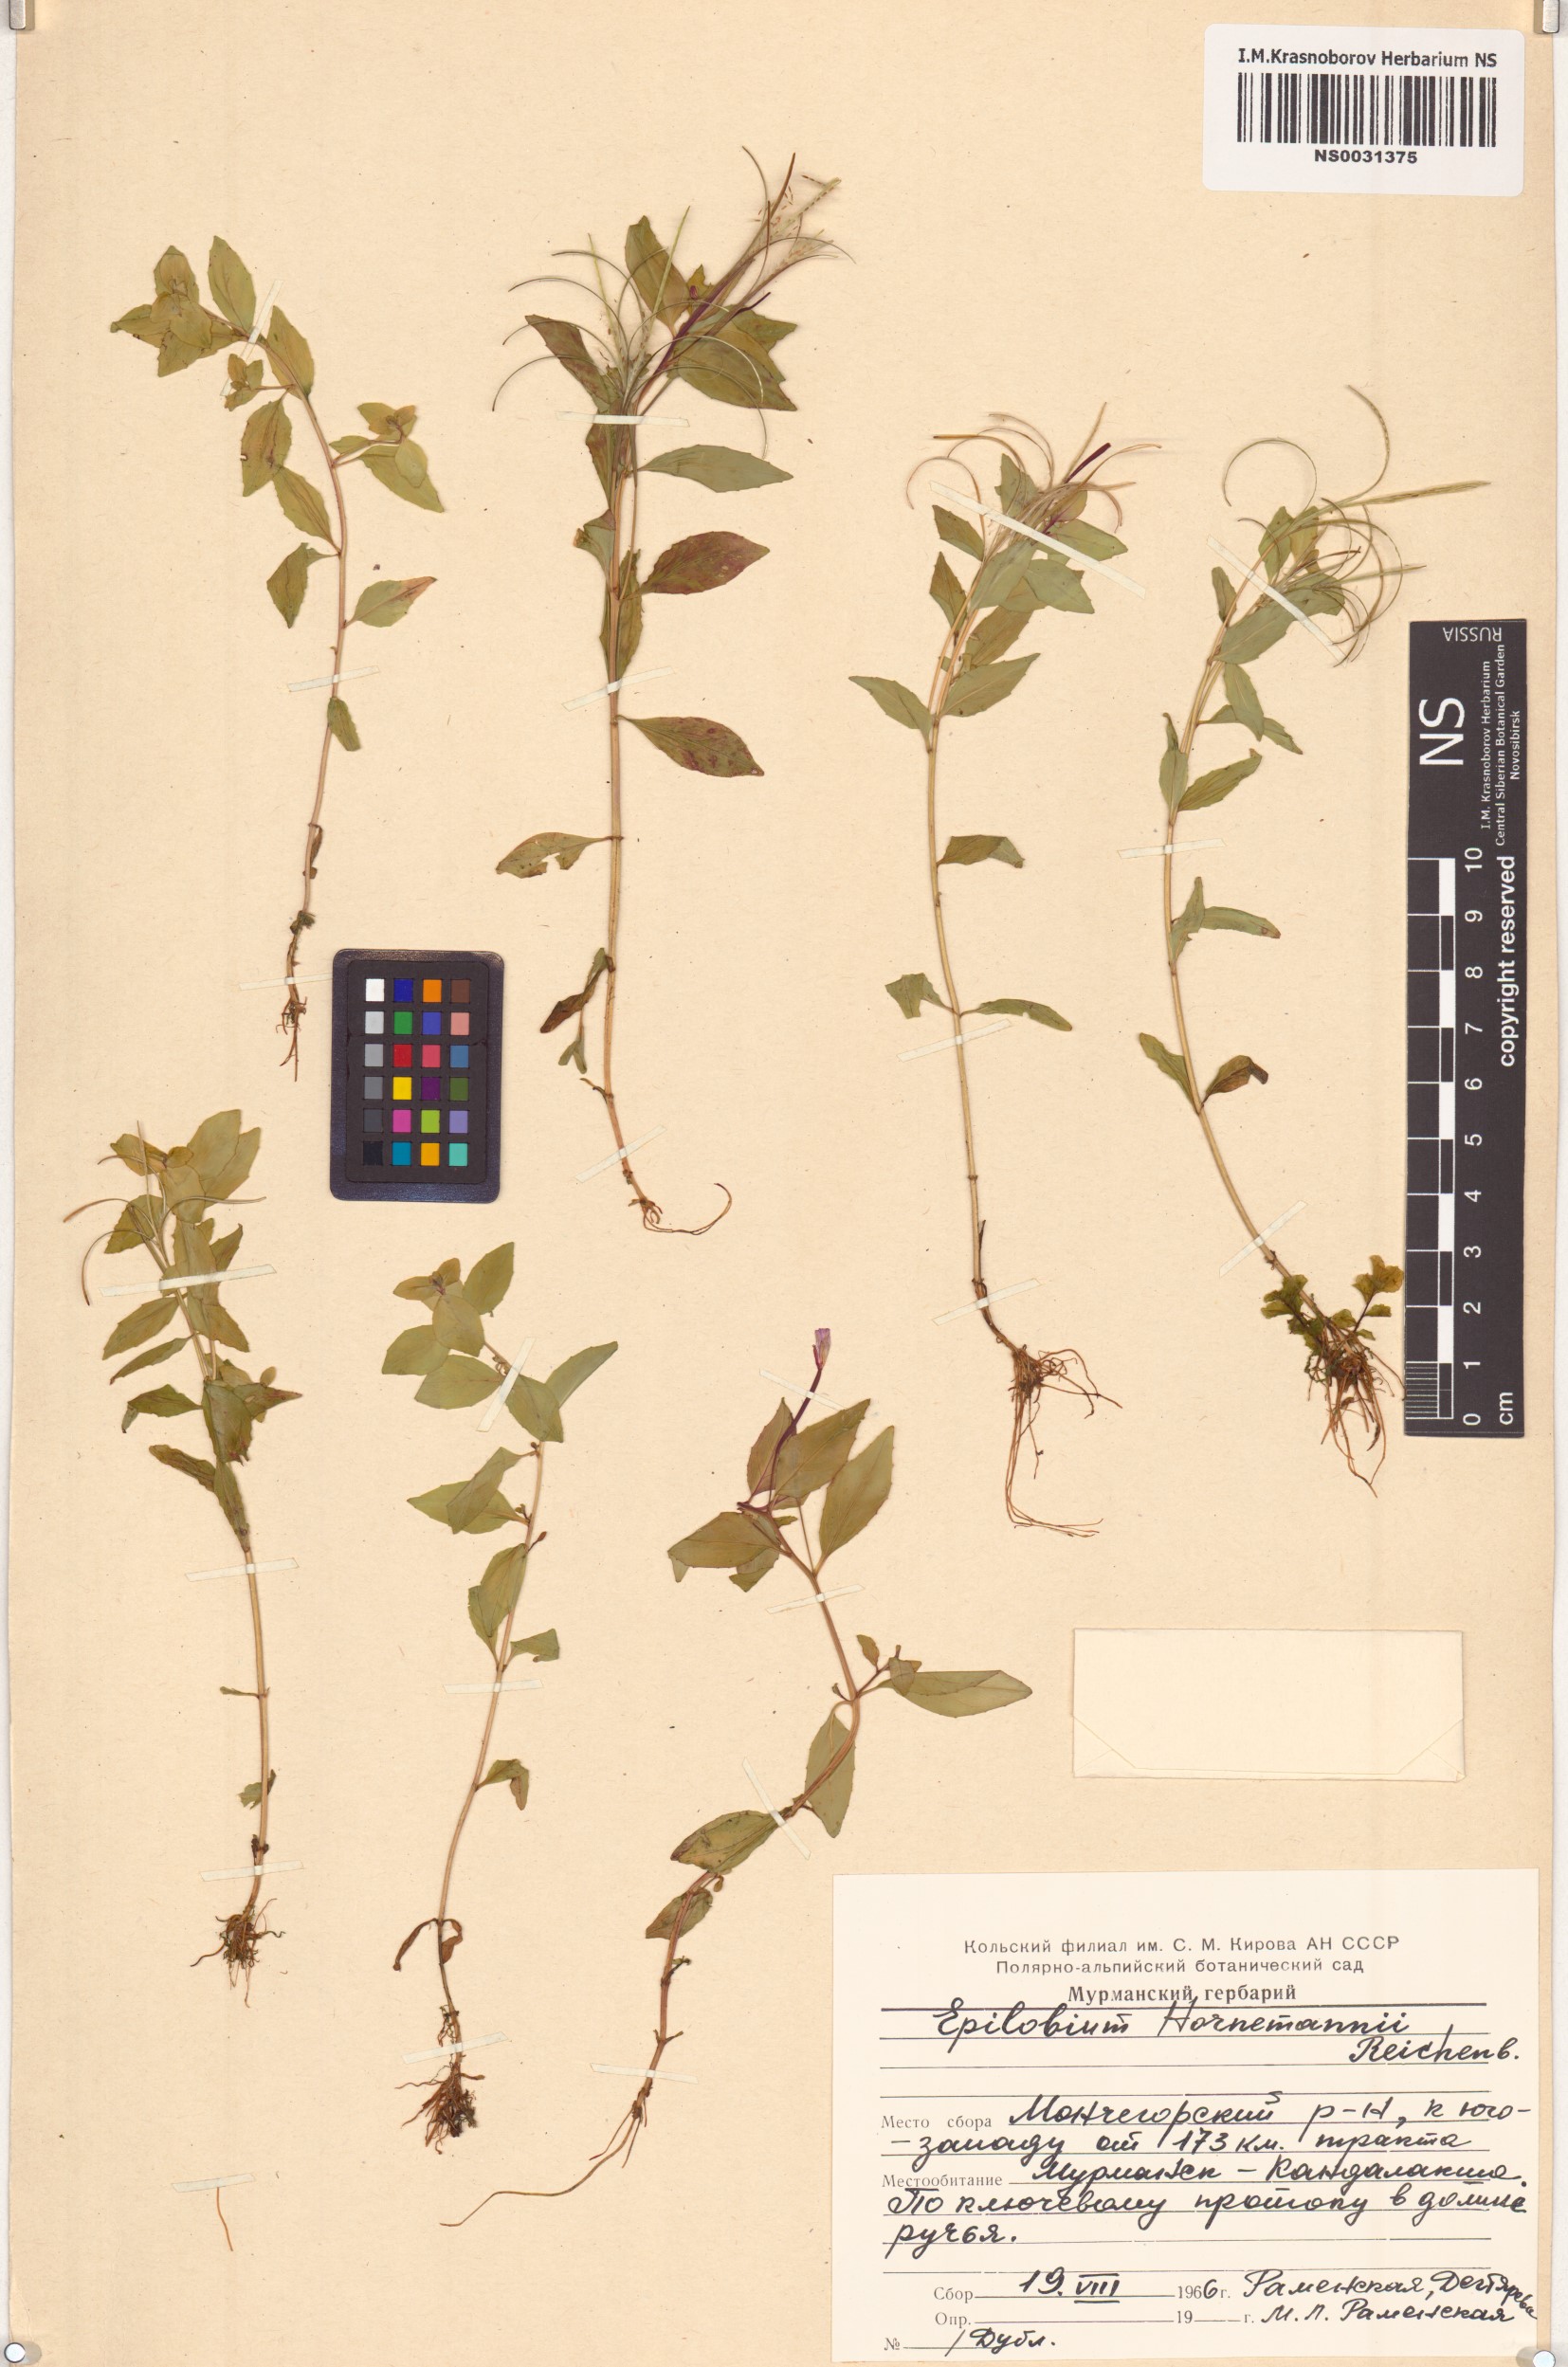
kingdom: Plantae
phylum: Tracheophyta
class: Magnoliopsida
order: Myrtales
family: Onagraceae
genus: Epilobium
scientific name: Epilobium hornemannii
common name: Hornemann's willowherb
